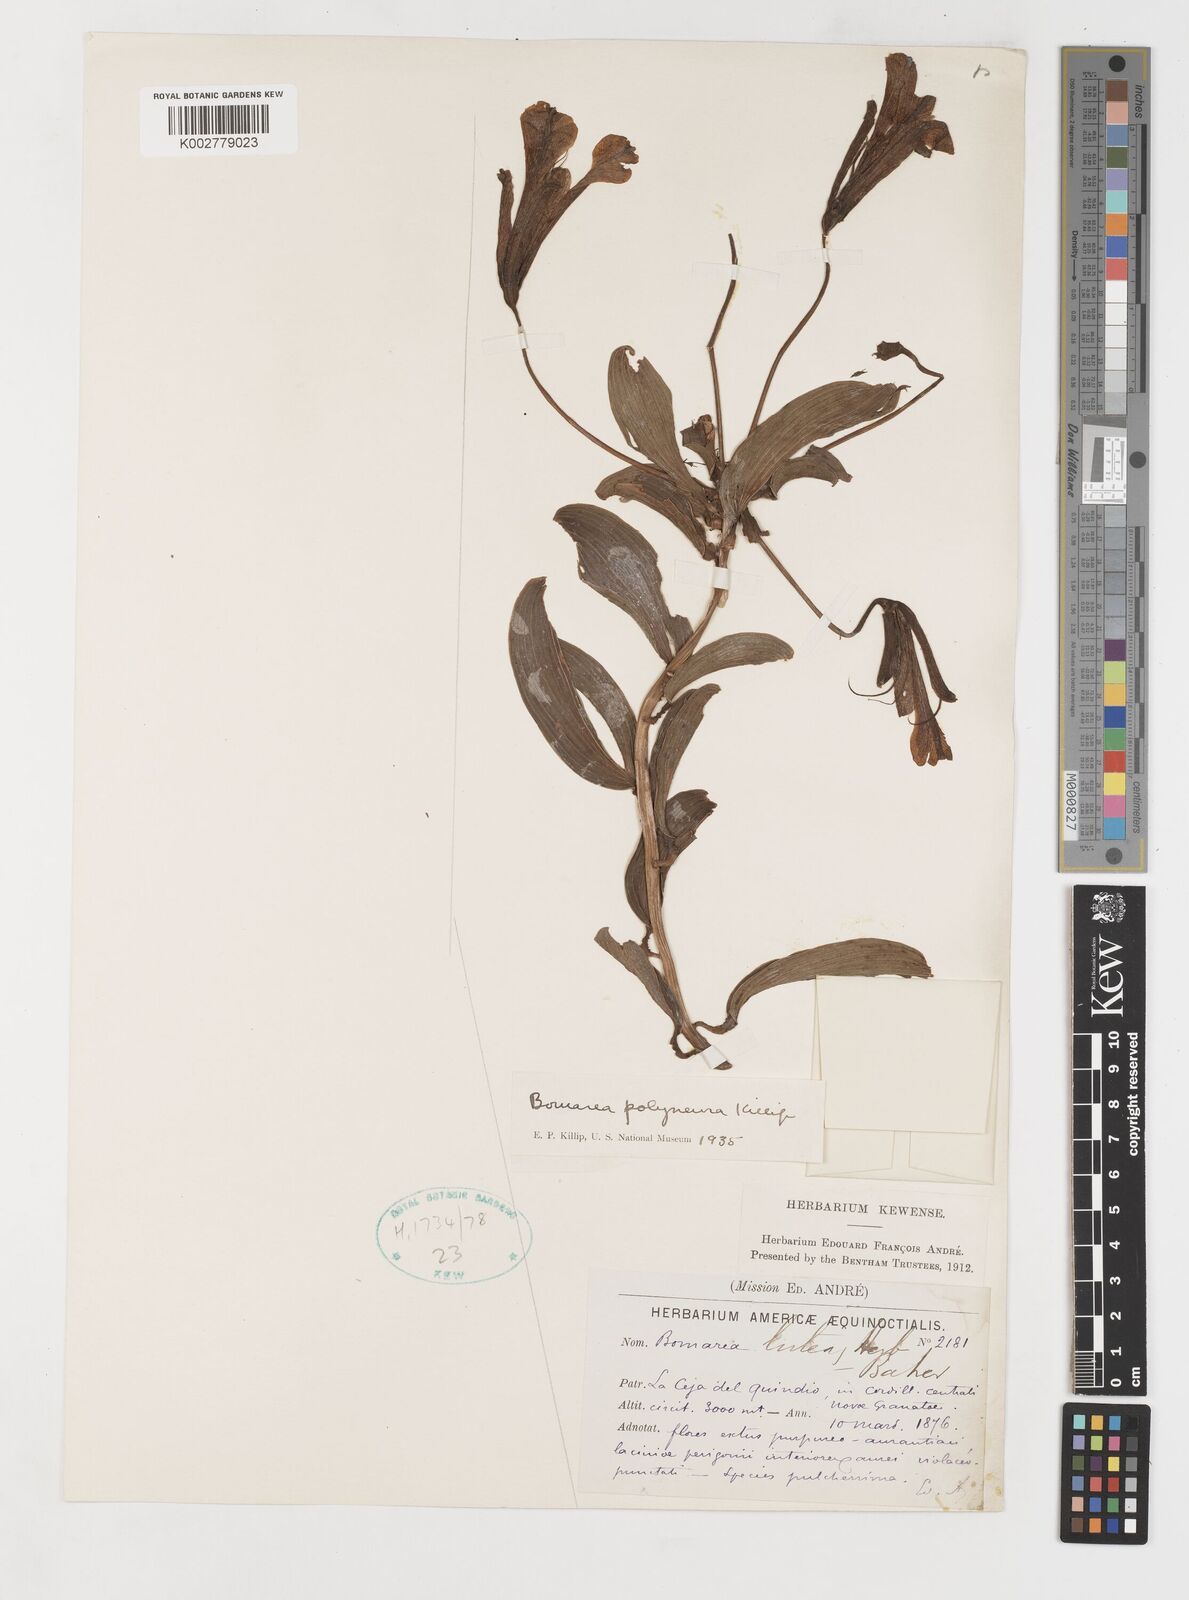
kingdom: Plantae
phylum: Tracheophyta
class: Liliopsida
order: Liliales
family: Alstroemeriaceae
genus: Bomarea
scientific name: Bomarea
